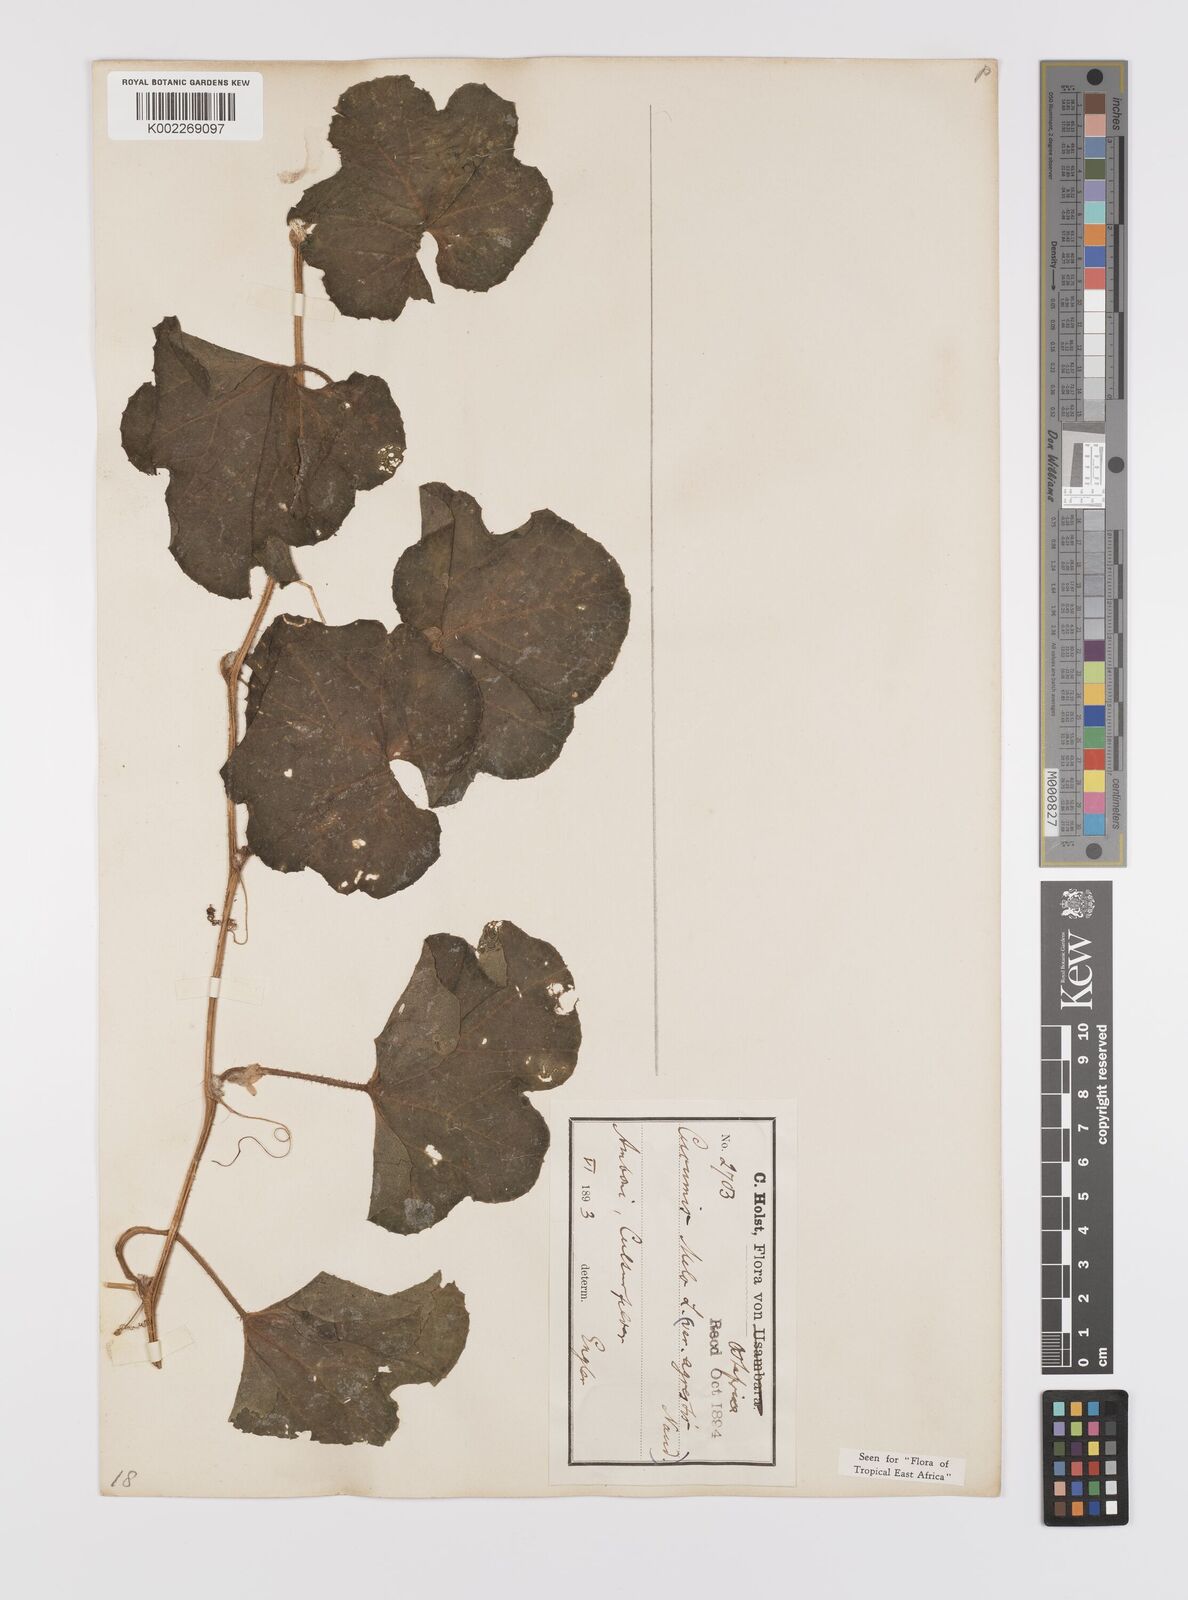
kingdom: Plantae
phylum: Tracheophyta
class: Magnoliopsida
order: Cucurbitales
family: Cucurbitaceae
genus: Cucumis
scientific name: Cucumis melo
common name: Melon
